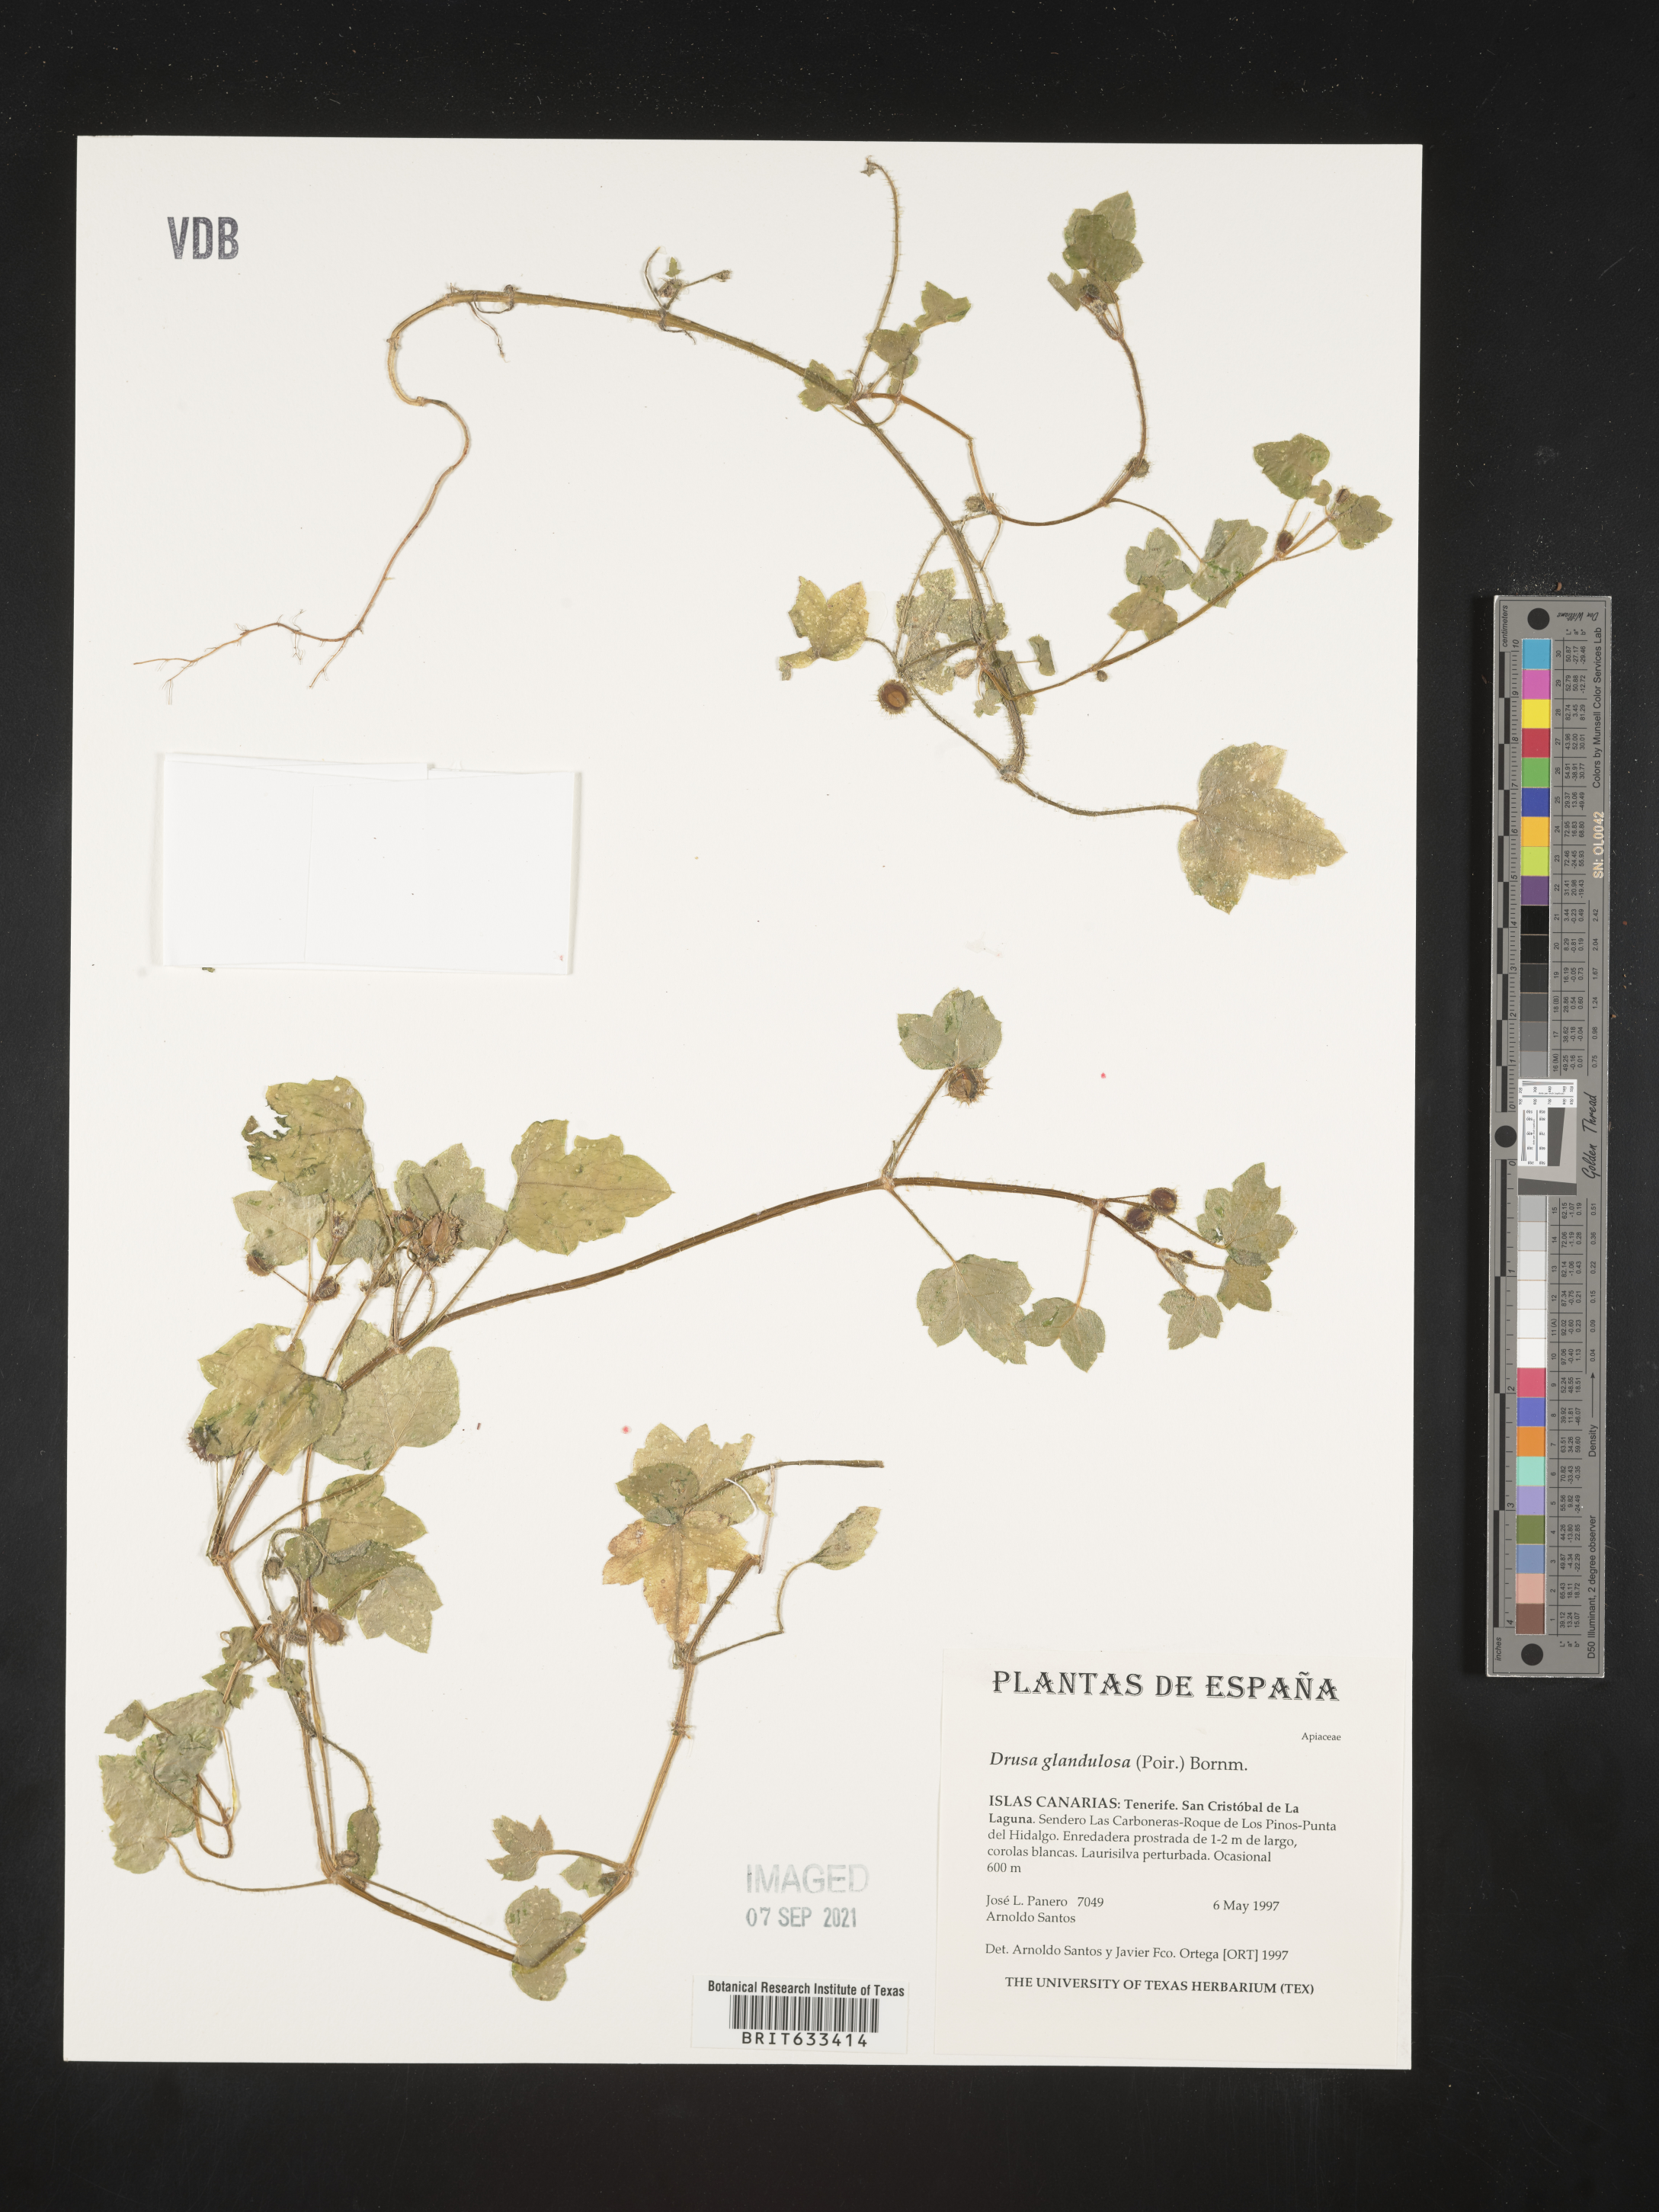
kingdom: Plantae
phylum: Tracheophyta
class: Magnoliopsida
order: Apiales
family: Apiaceae
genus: Drusa
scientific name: Drusa glandulosa
